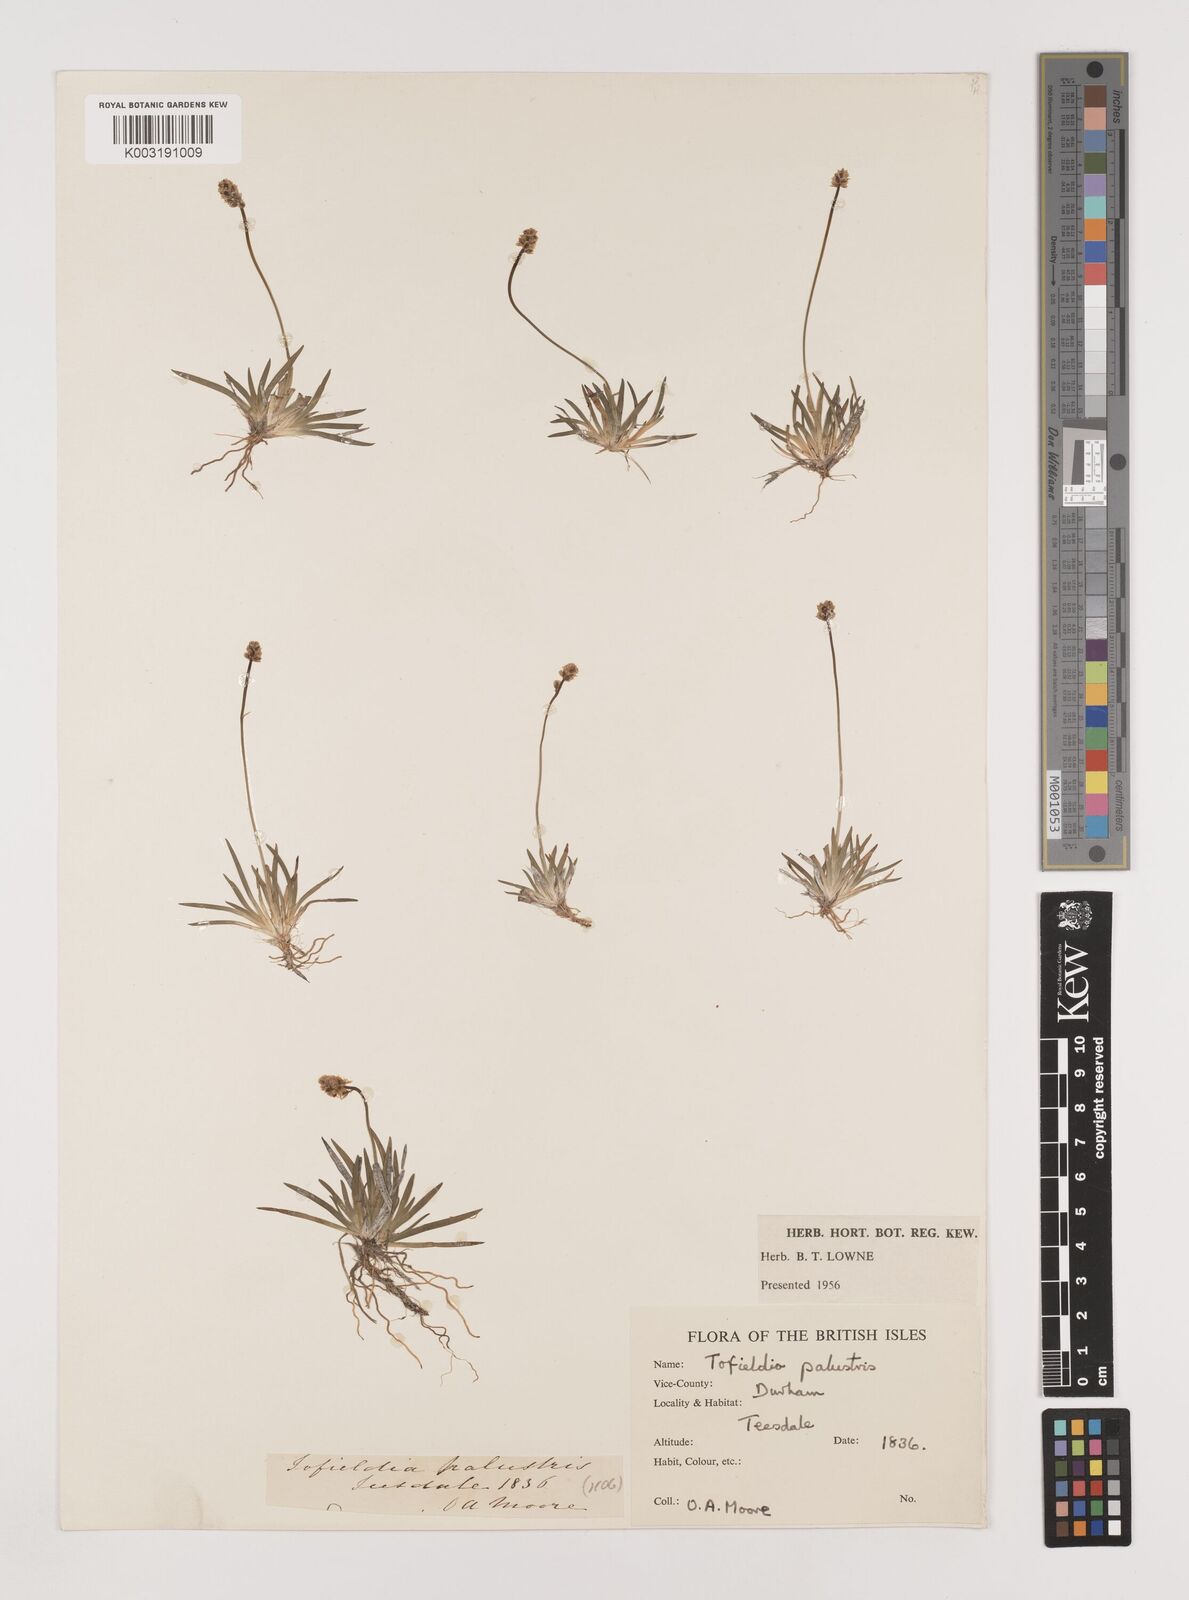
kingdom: Plantae
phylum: Tracheophyta
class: Liliopsida
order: Alismatales
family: Tofieldiaceae
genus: Tofieldia
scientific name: Tofieldia pusilla
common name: Scottish false asphodel
